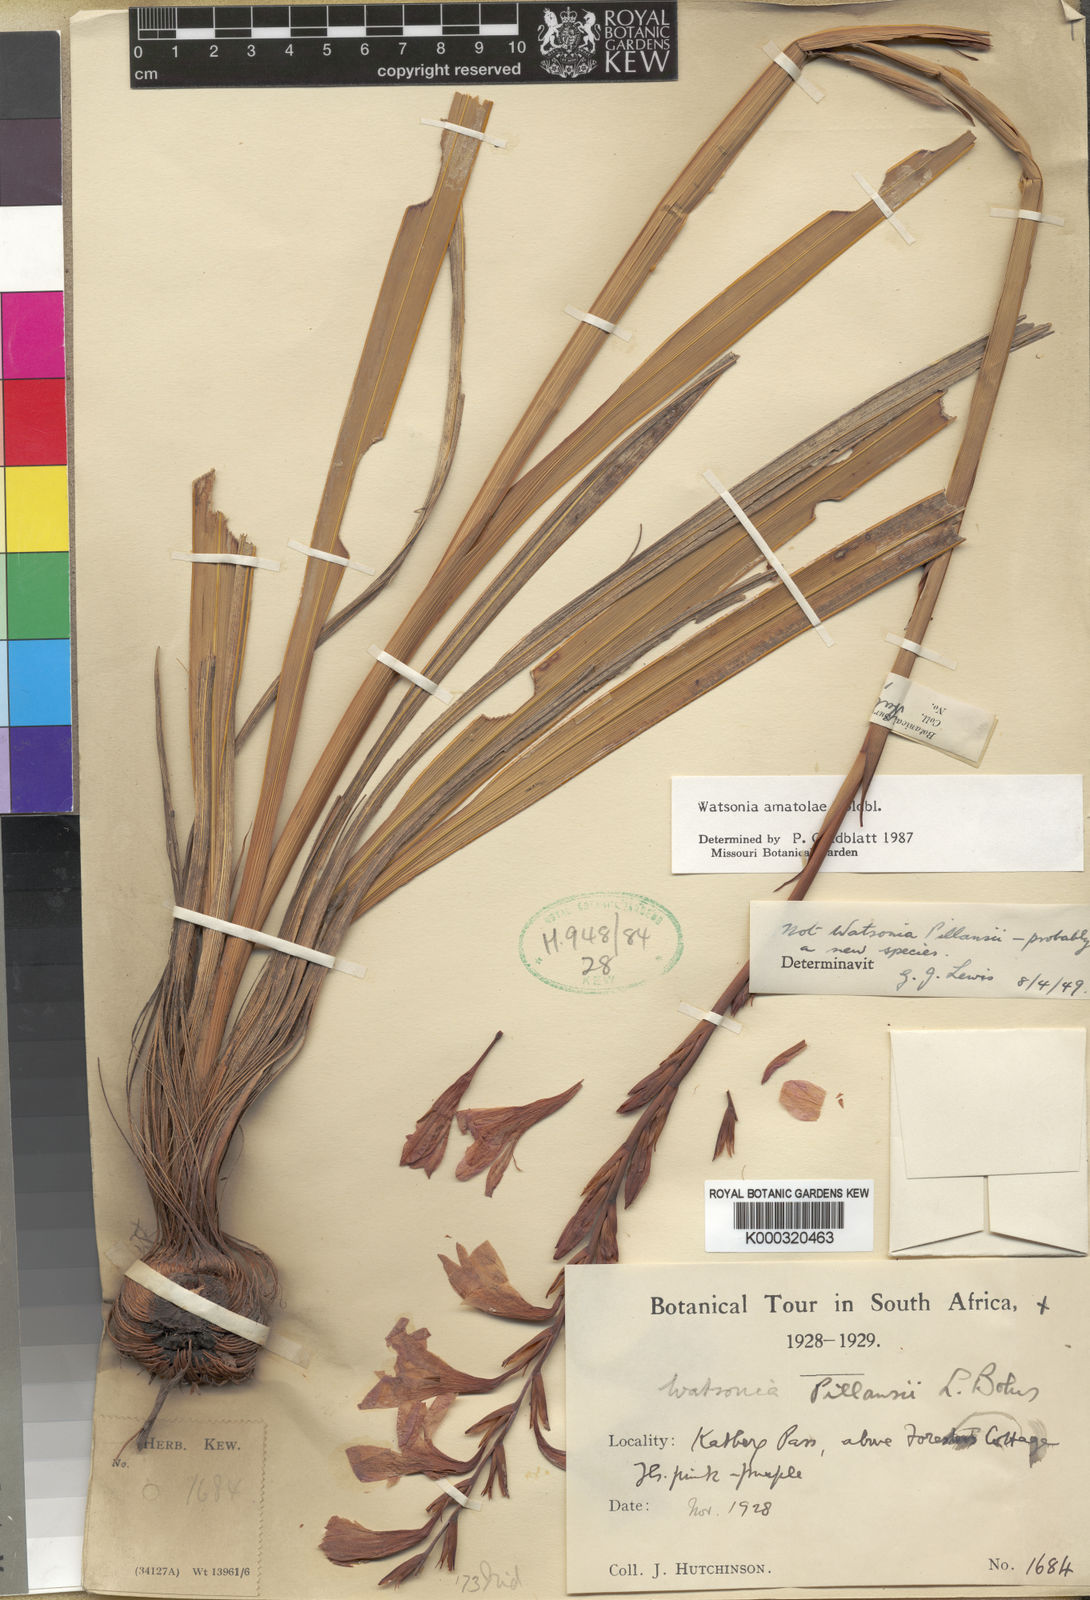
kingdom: Plantae
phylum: Tracheophyta
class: Liliopsida
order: Asparagales
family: Iridaceae
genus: Watsonia
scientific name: Watsonia amatolae
